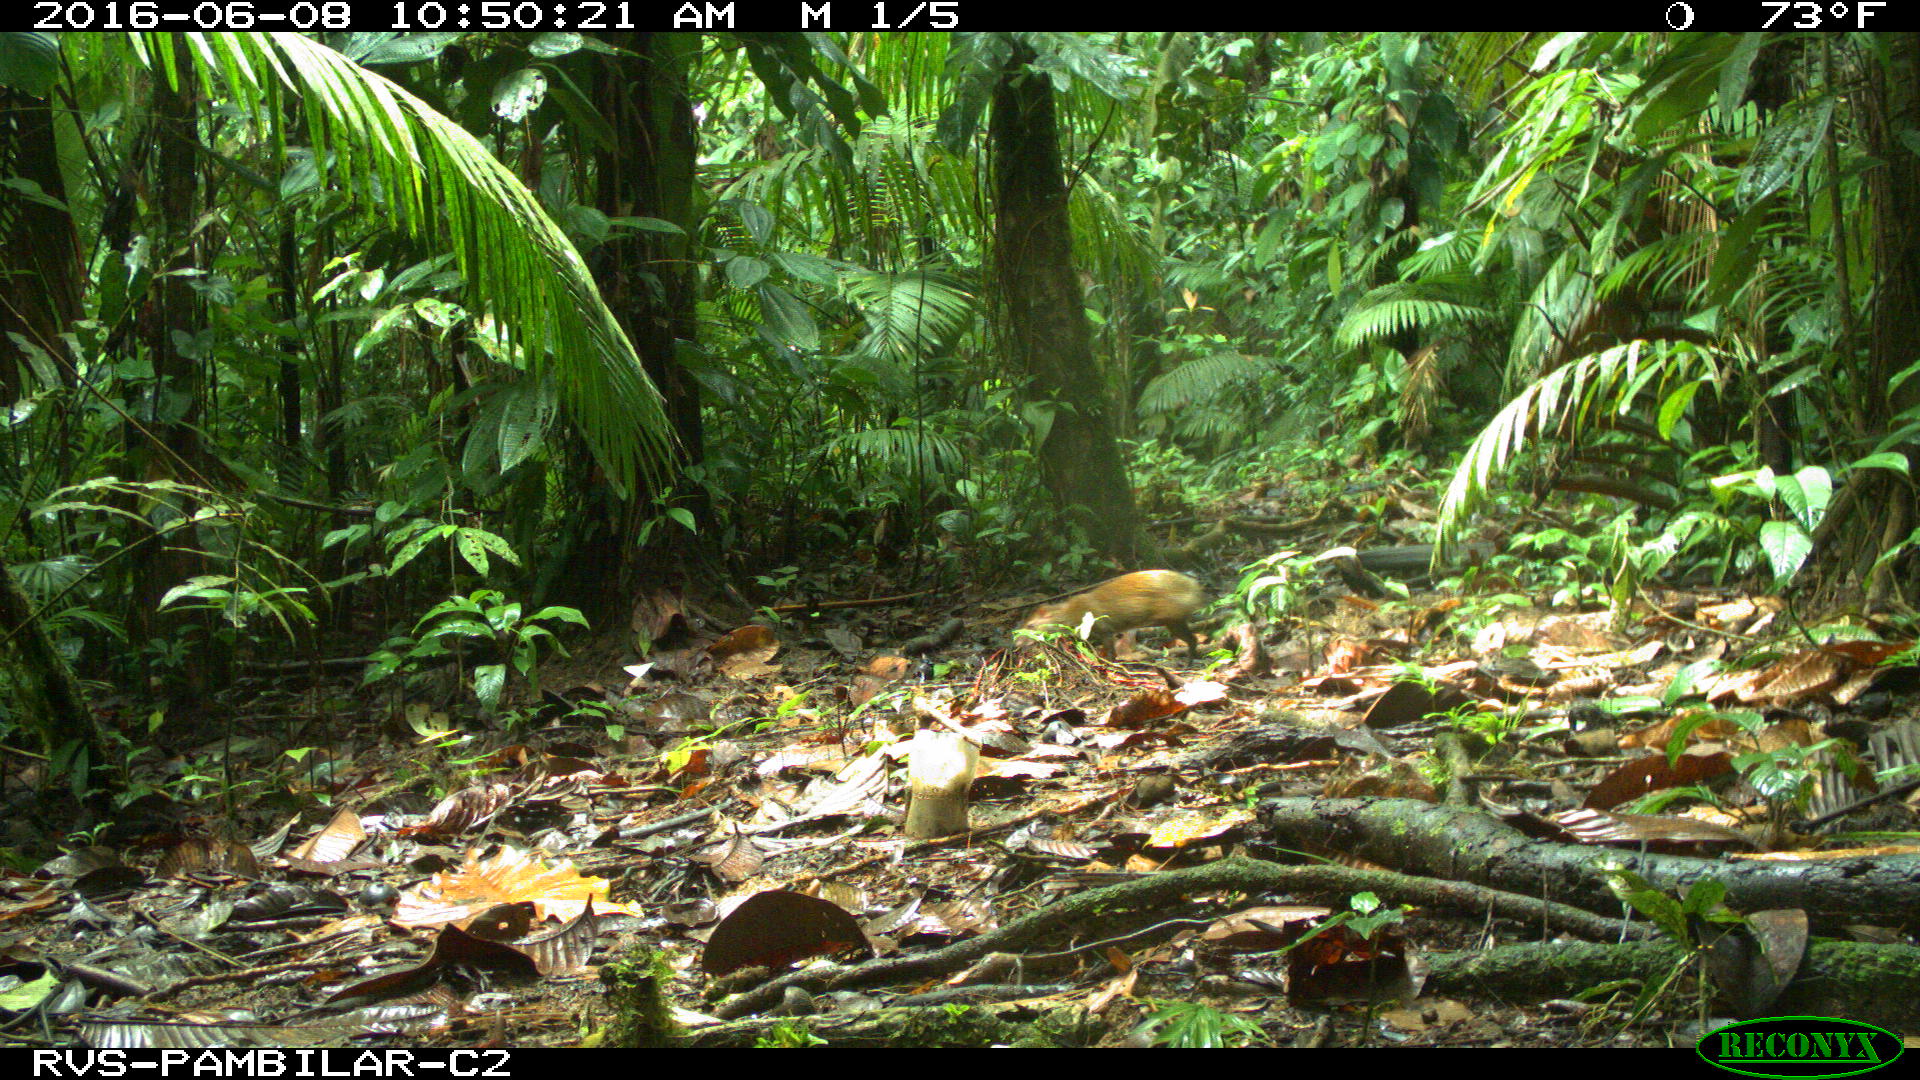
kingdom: Animalia
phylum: Chordata
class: Mammalia
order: Rodentia
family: Dasyproctidae
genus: Dasyprocta
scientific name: Dasyprocta punctata
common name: Central american agouti
